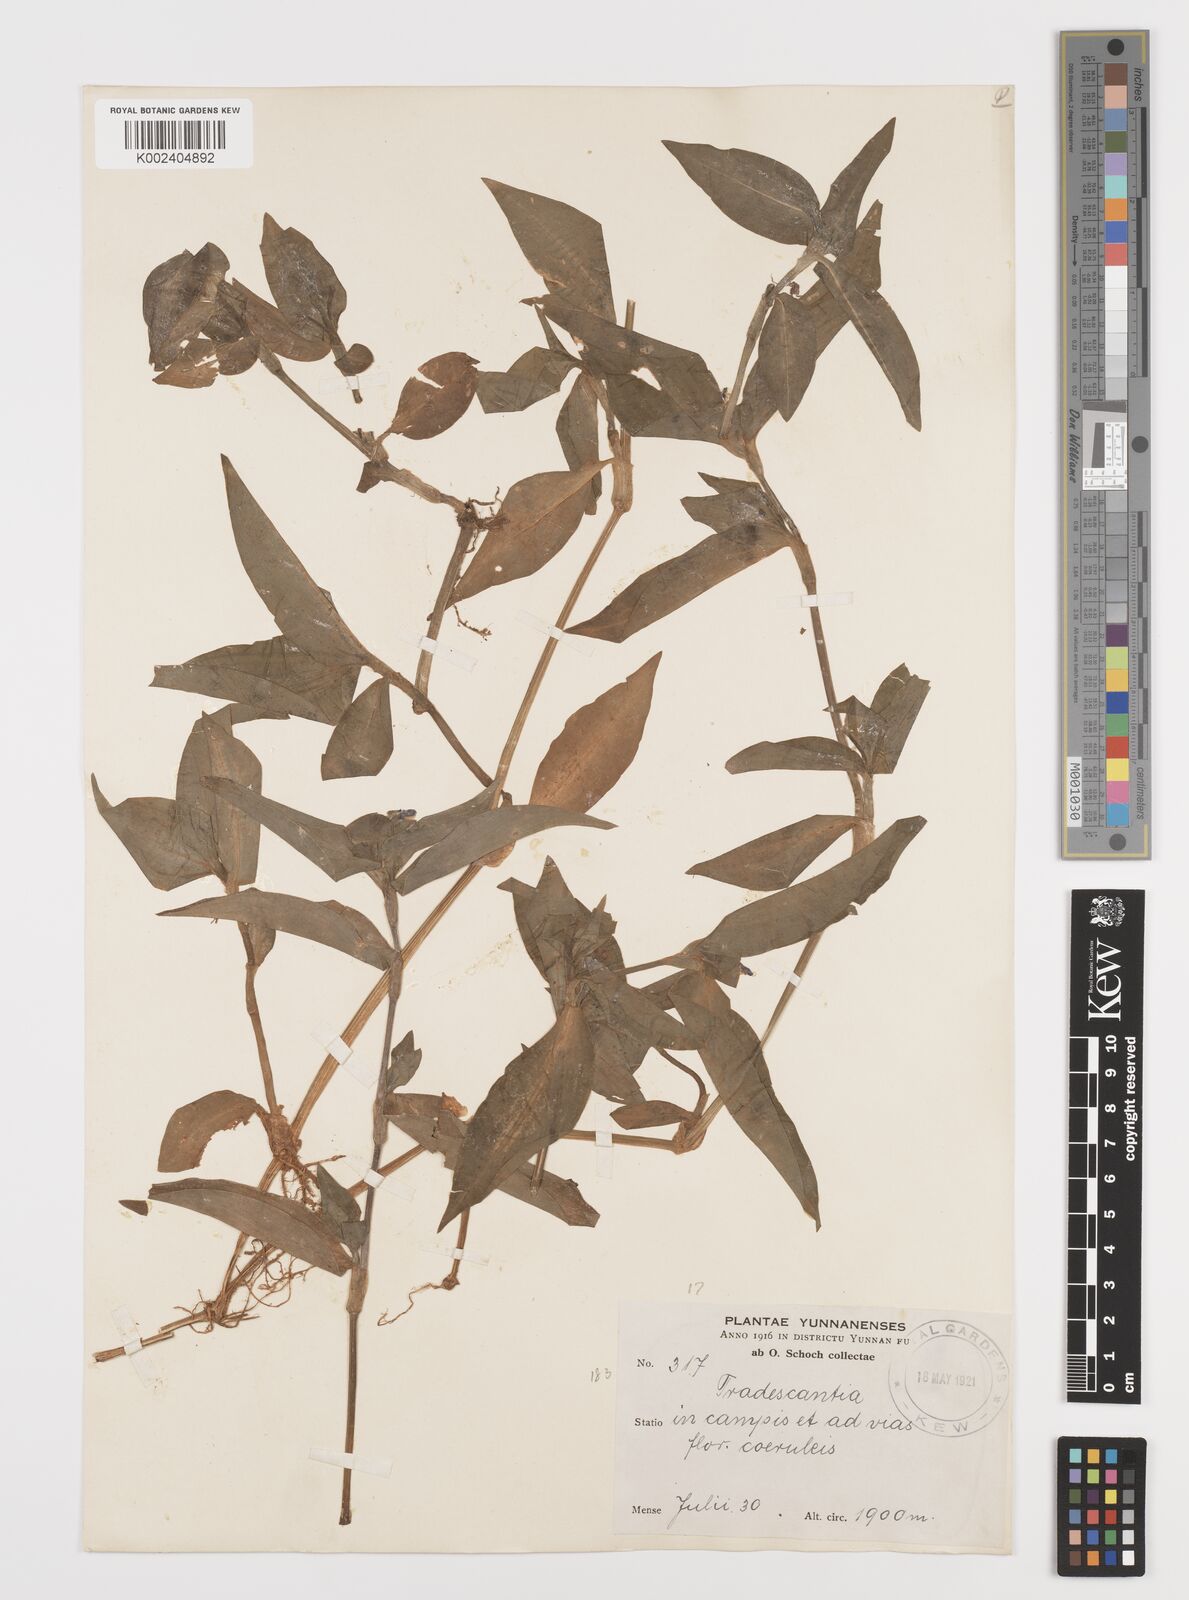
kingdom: Plantae
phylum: Tracheophyta
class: Liliopsida
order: Commelinales
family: Commelinaceae
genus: Commelina
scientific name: Commelina
